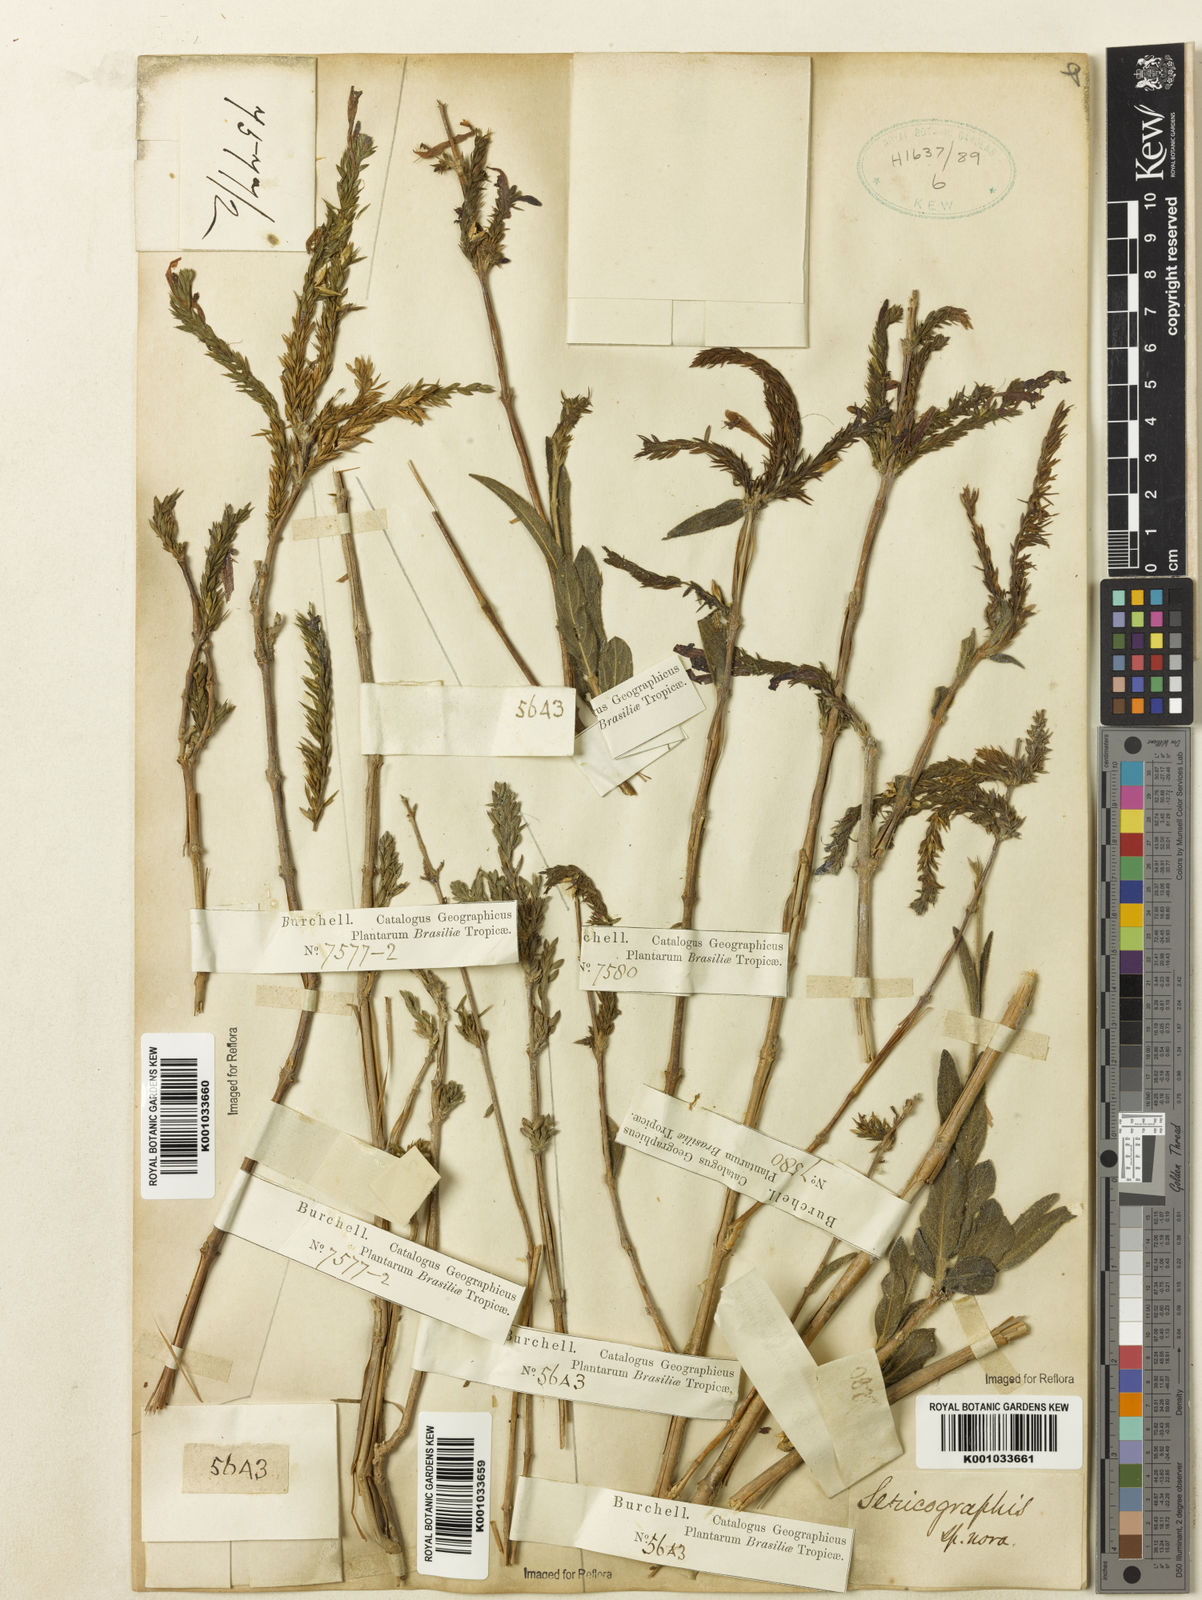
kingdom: Plantae
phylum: Tracheophyta
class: Magnoliopsida
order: Lamiales
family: Acanthaceae
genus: Justicia
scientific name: Justicia
